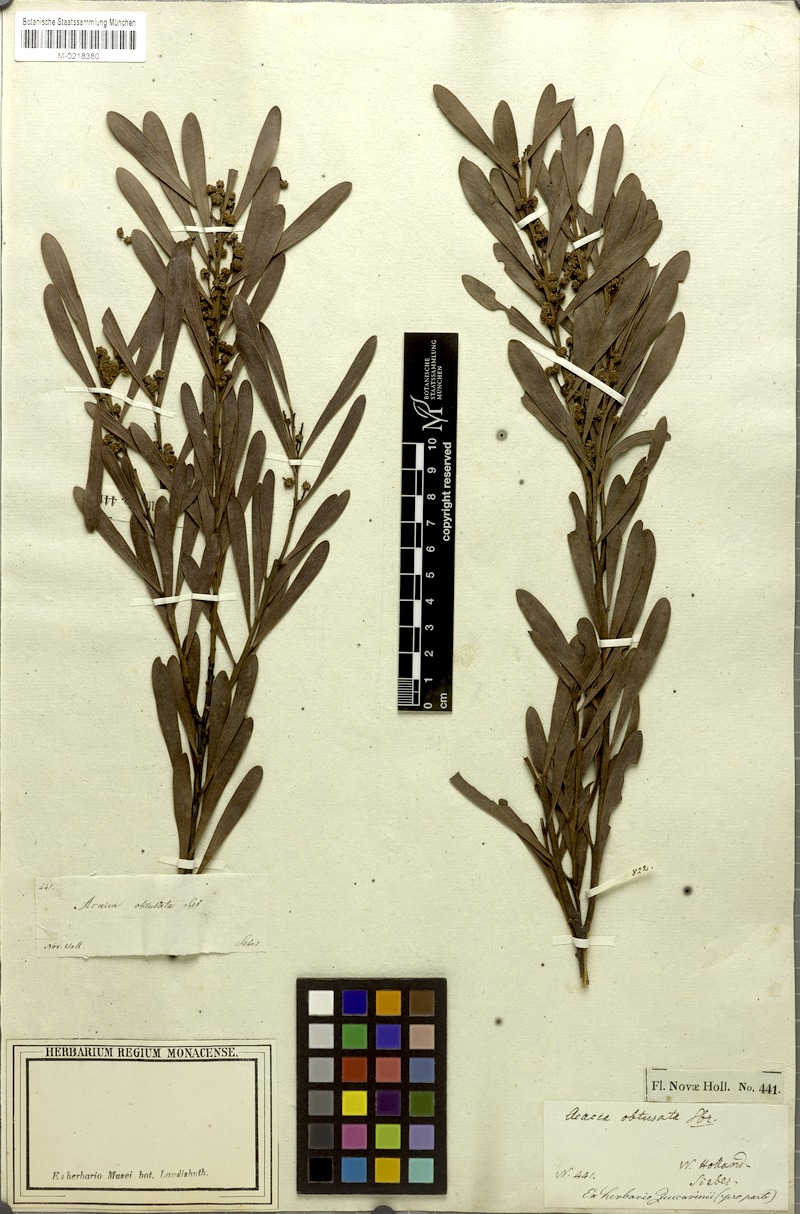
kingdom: Plantae
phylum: Tracheophyta
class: Magnoliopsida
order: Fabales
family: Fabaceae
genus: Acacia
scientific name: Acacia obtusata
